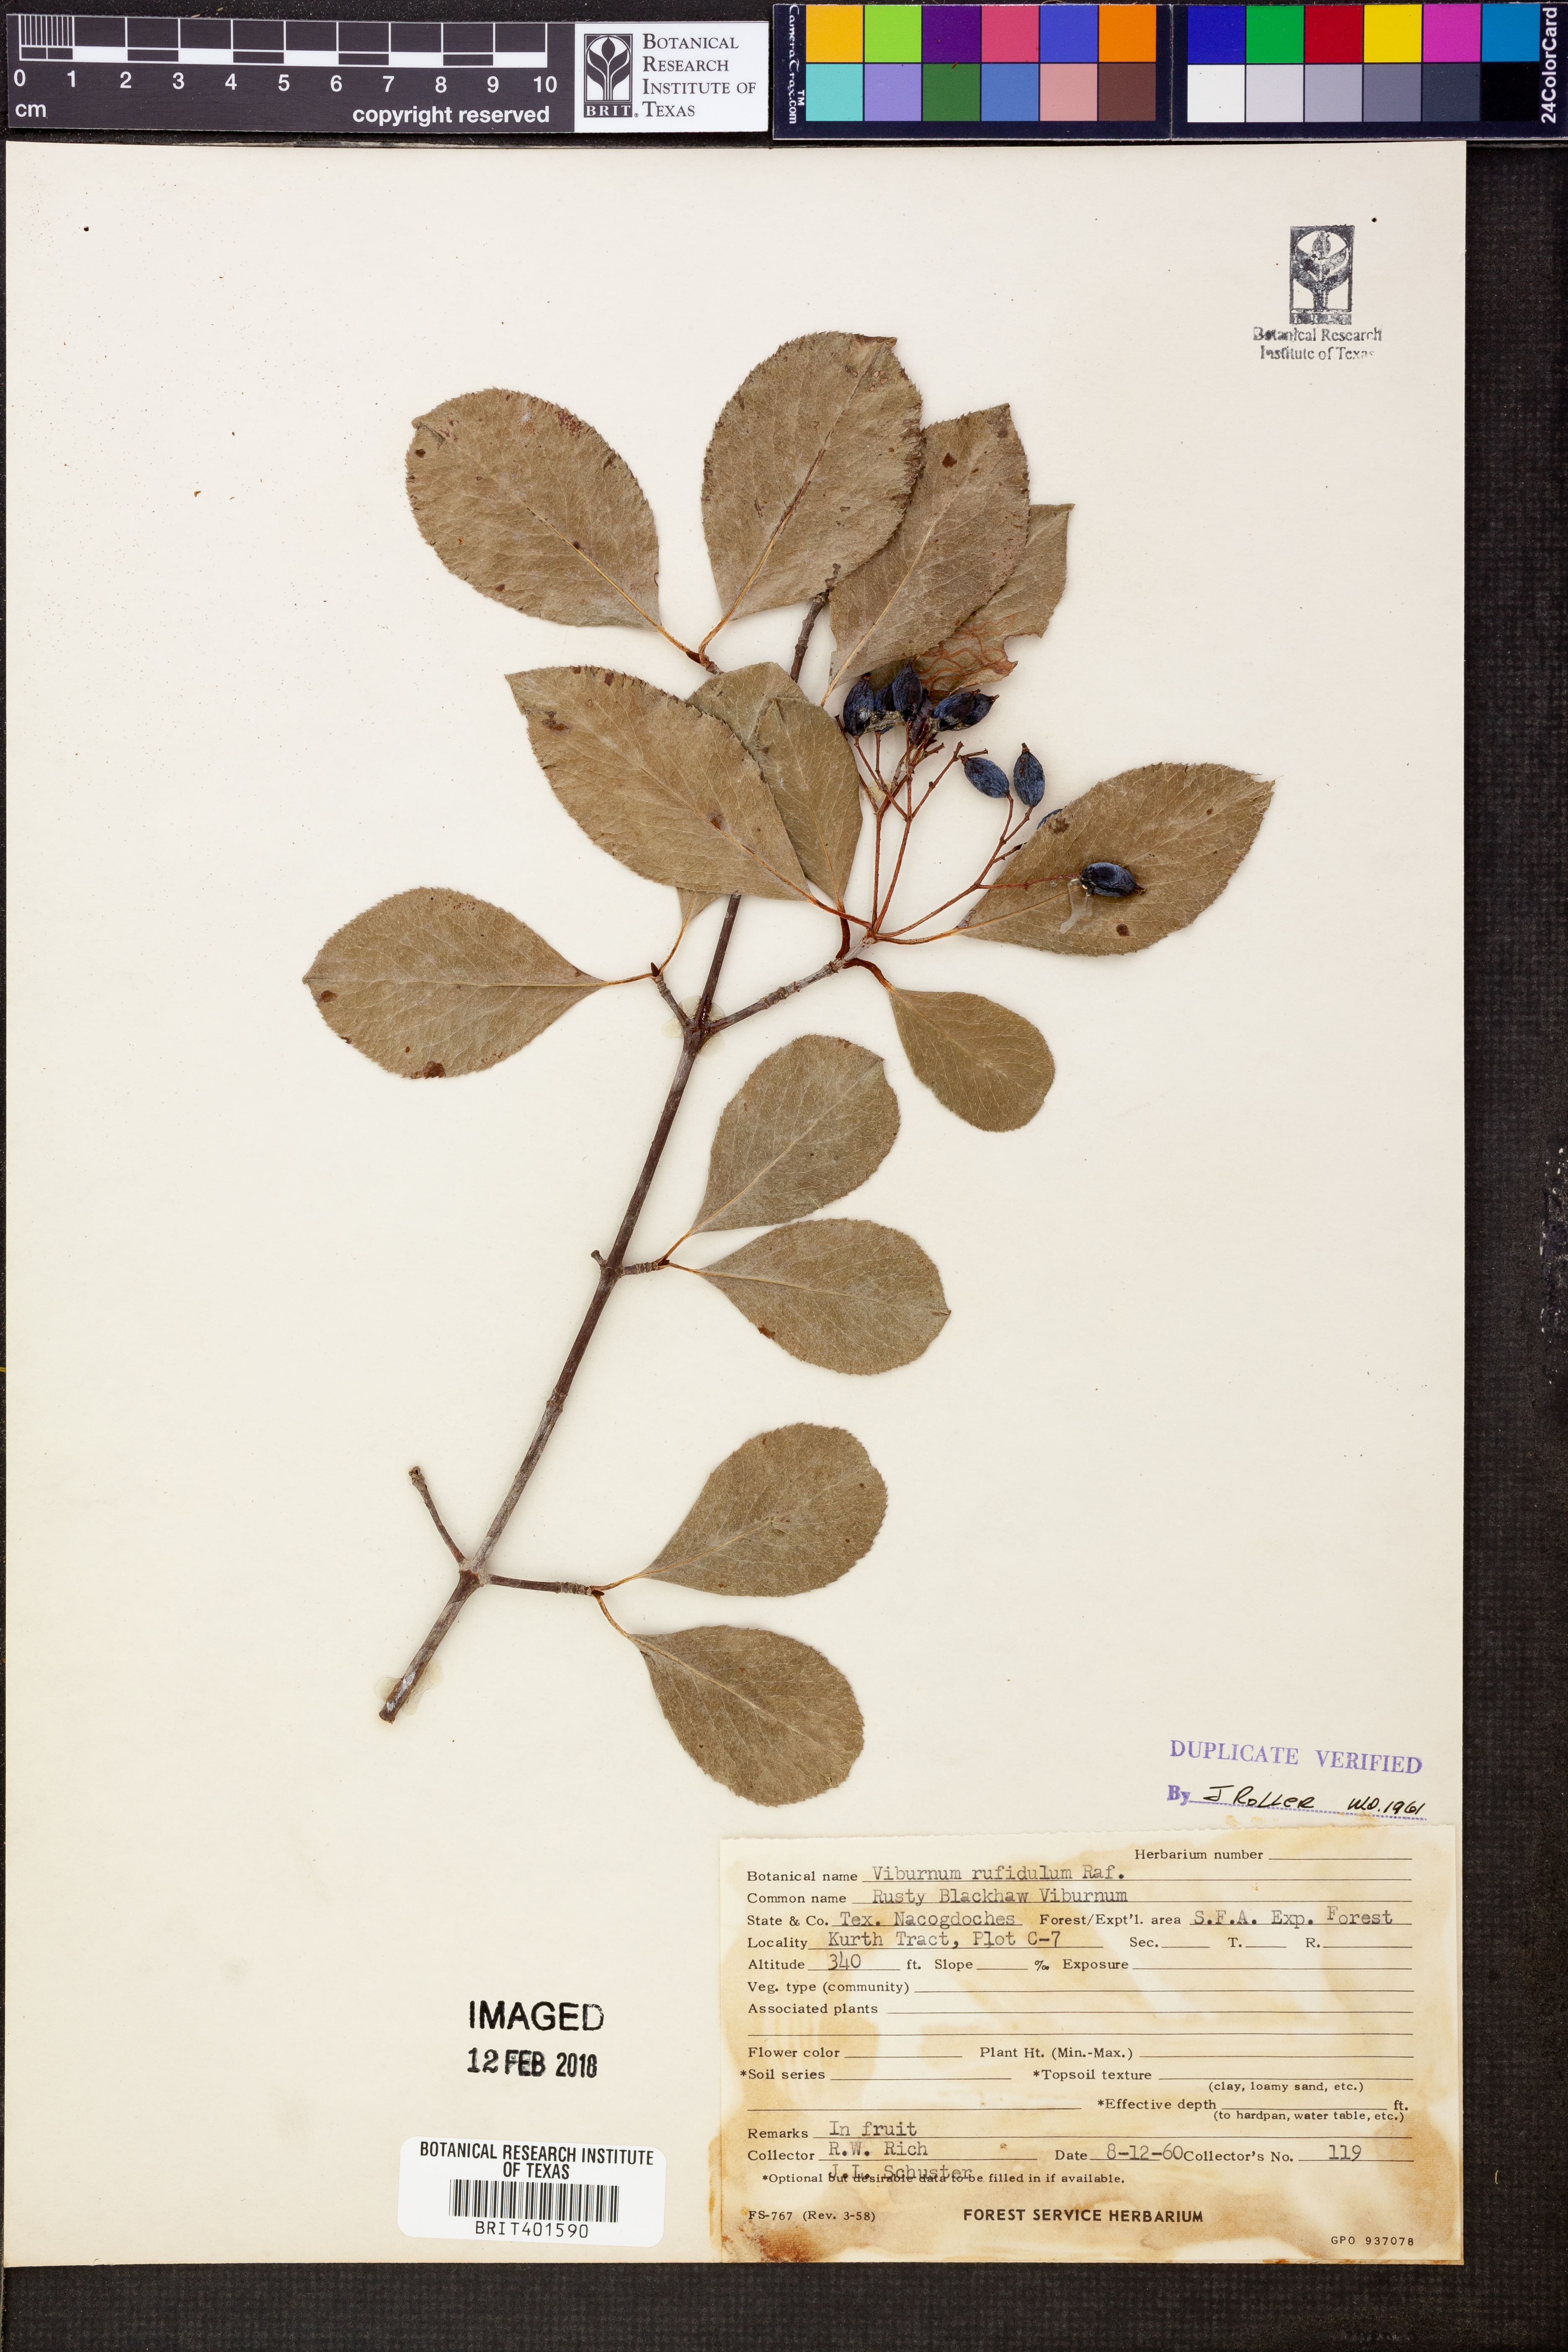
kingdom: Plantae
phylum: Tracheophyta
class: Magnoliopsida
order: Dipsacales
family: Viburnaceae
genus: Viburnum
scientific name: Viburnum rufidulum
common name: Blue haw
